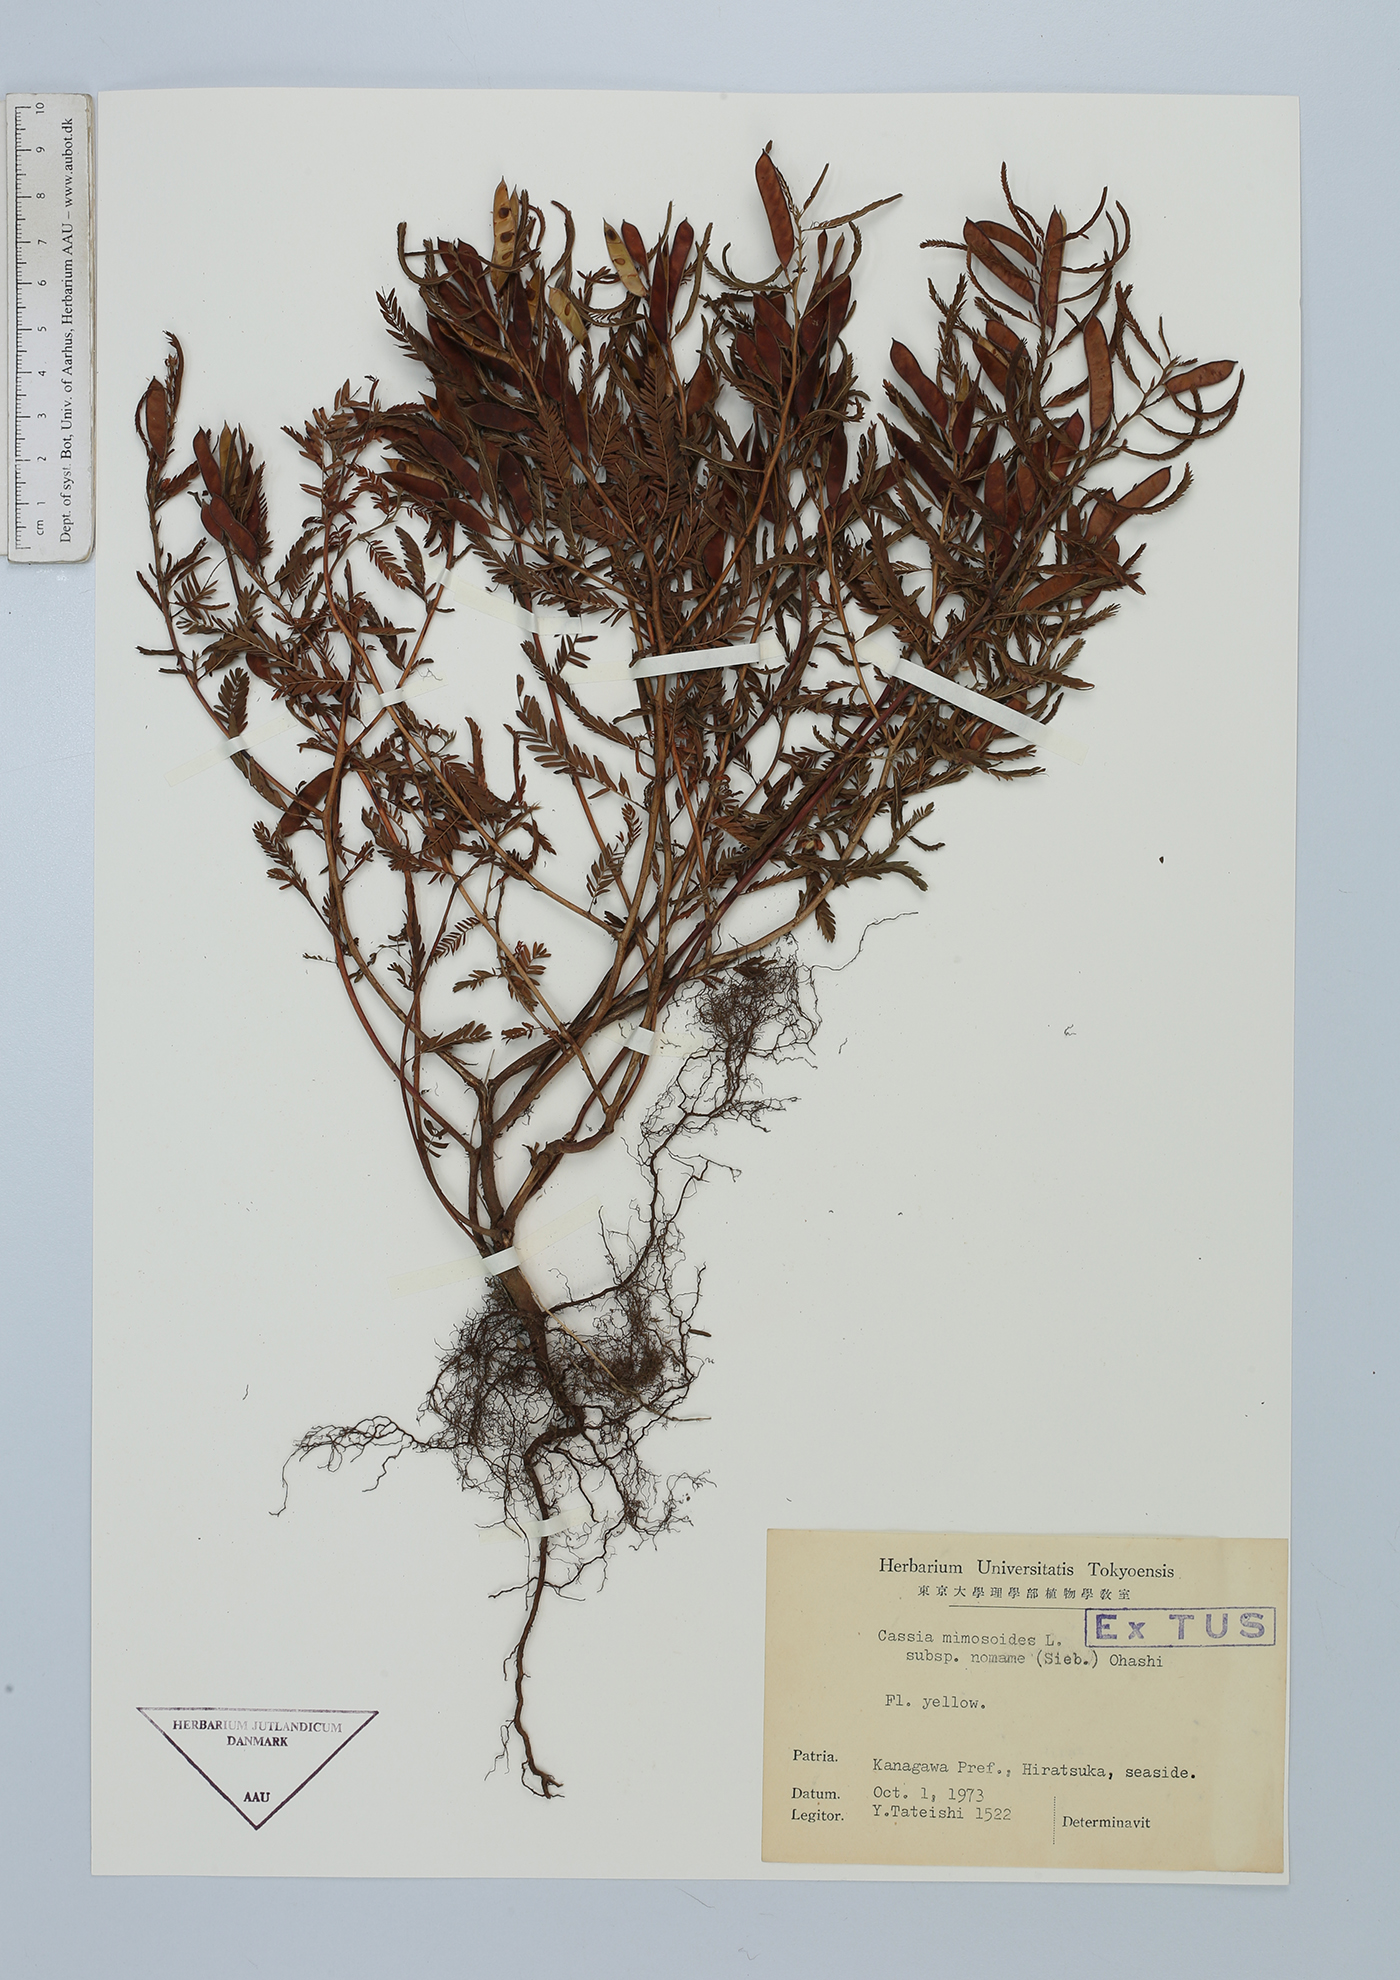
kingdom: Plantae
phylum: Tracheophyta
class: Magnoliopsida
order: Fabales
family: Fabaceae
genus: Chamaecrista
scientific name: Chamaecrista nomame
